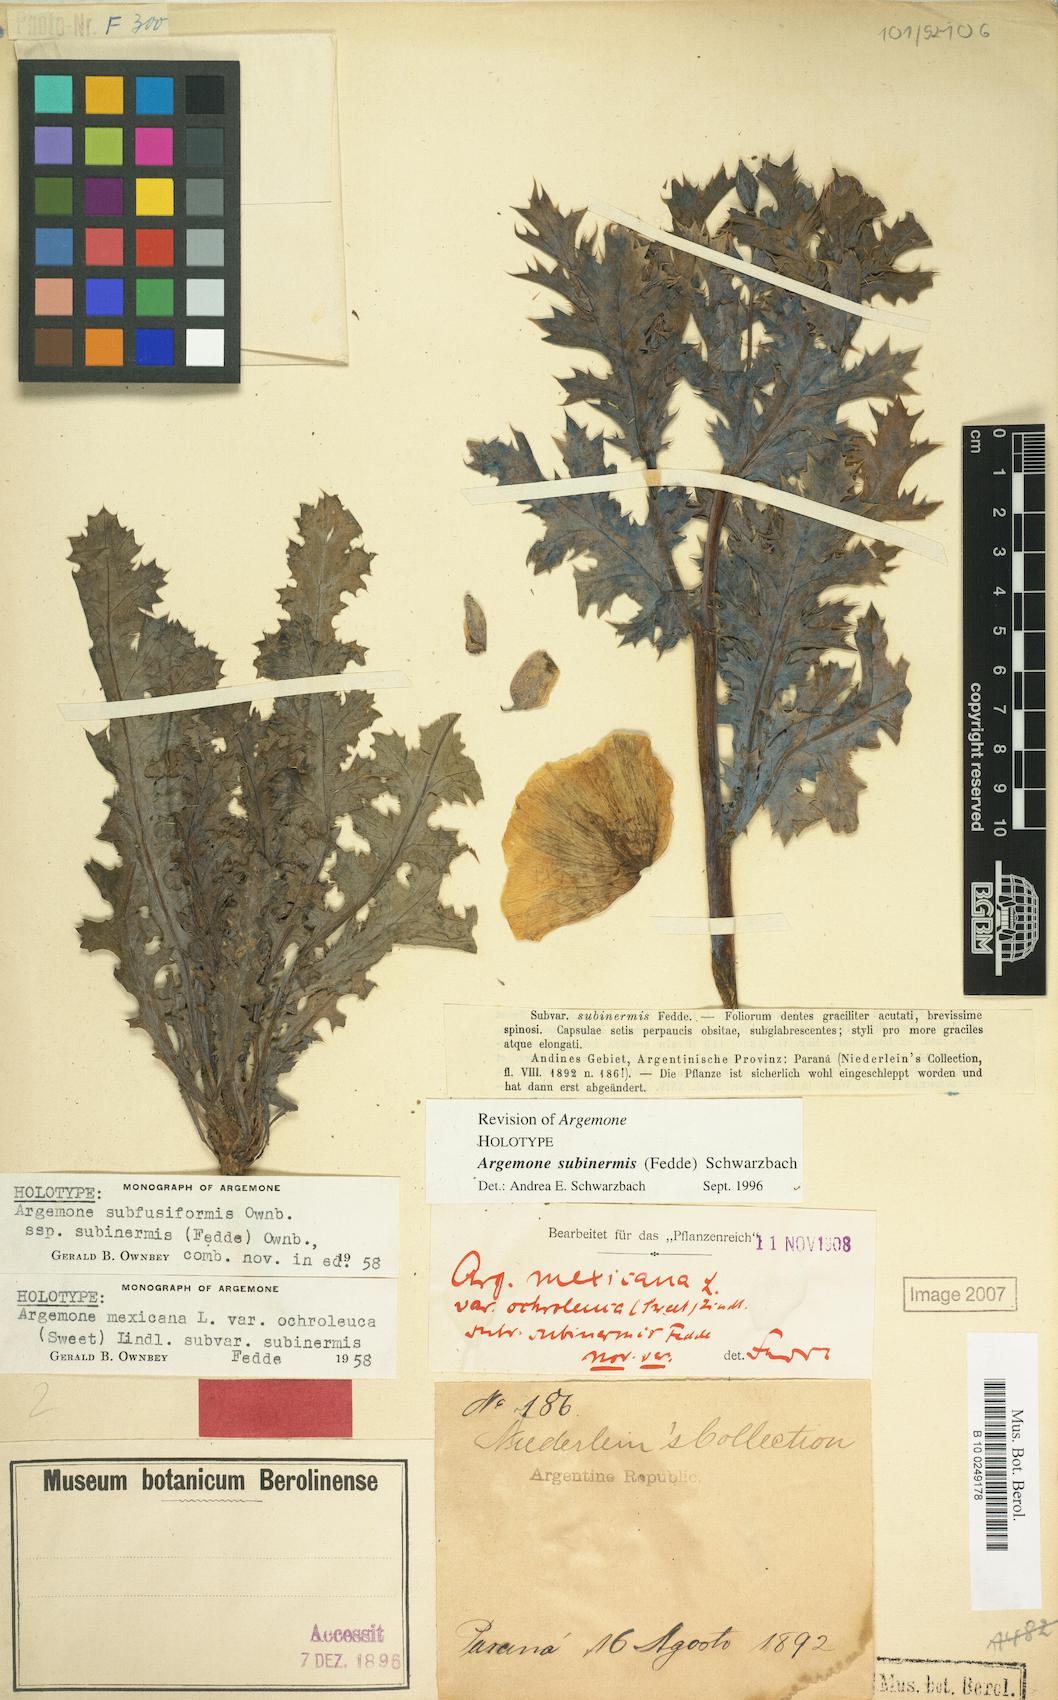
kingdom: Plantae
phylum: Tracheophyta
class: Magnoliopsida
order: Ranunculales
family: Papaveraceae
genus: Argemone
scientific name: Argemone subinermis
